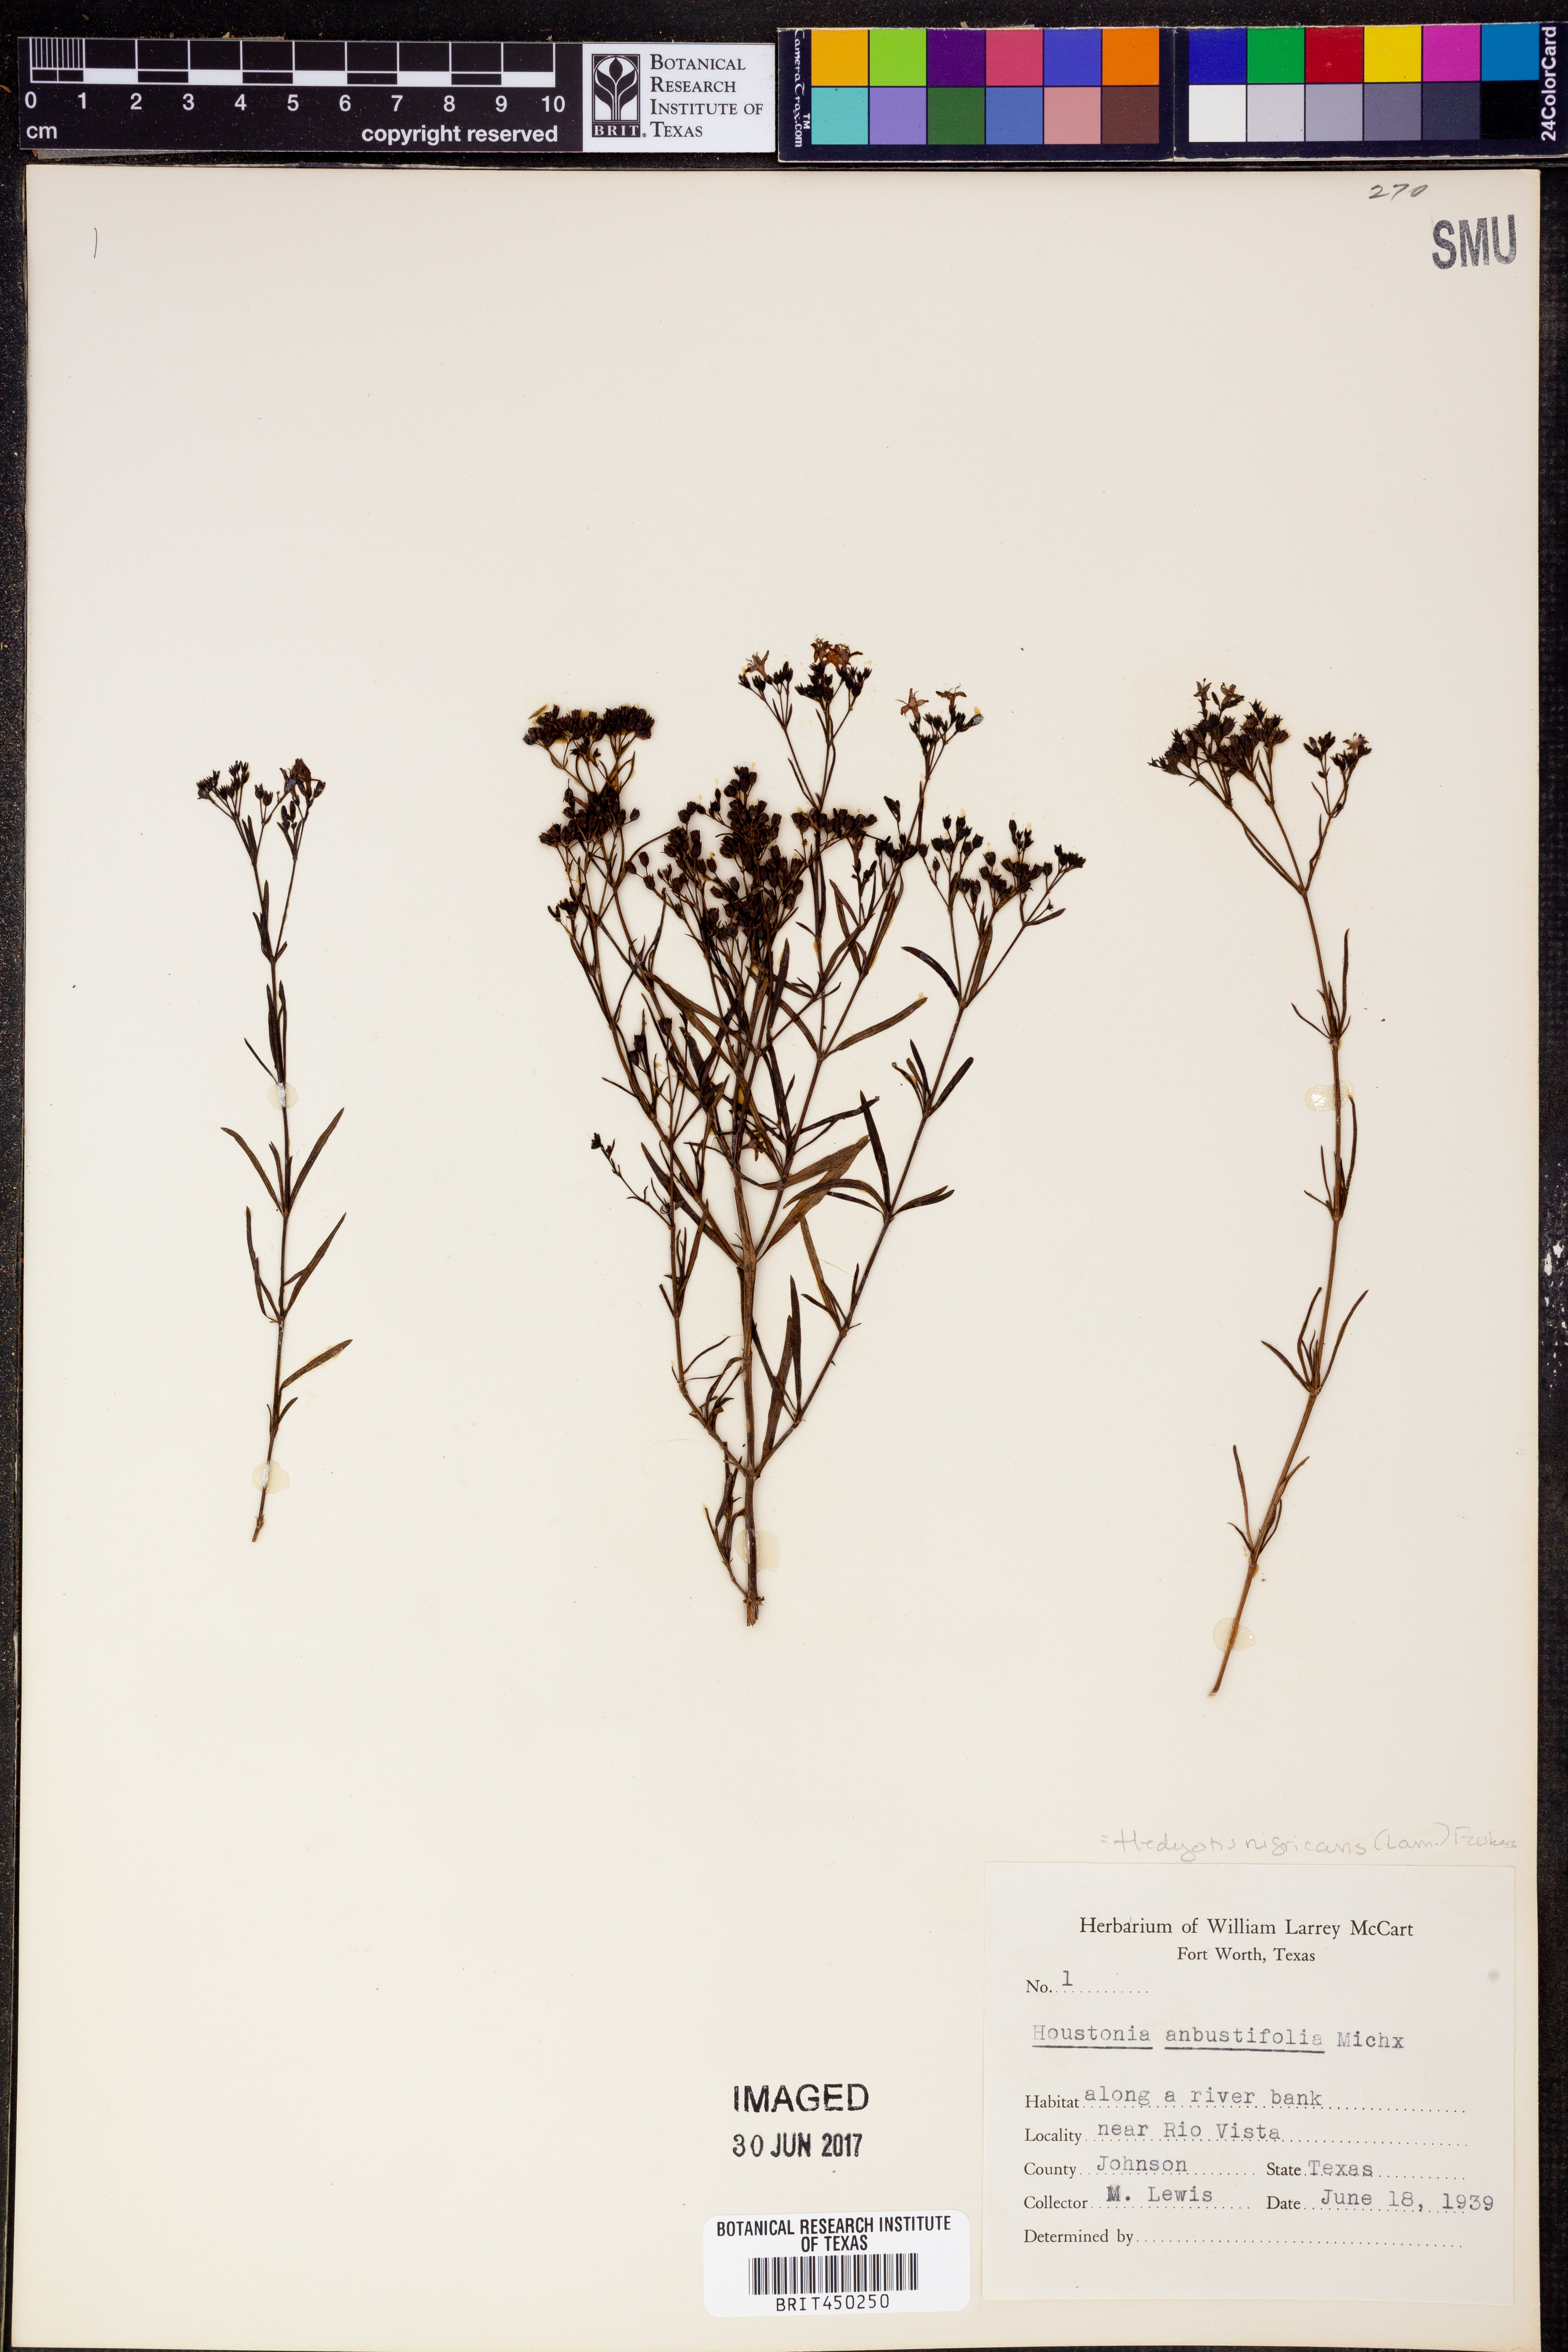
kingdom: Plantae
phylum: Tracheophyta
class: Magnoliopsida
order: Gentianales
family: Rubiaceae
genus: Stenaria
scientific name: Stenaria nigricans
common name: Diamondflowers
